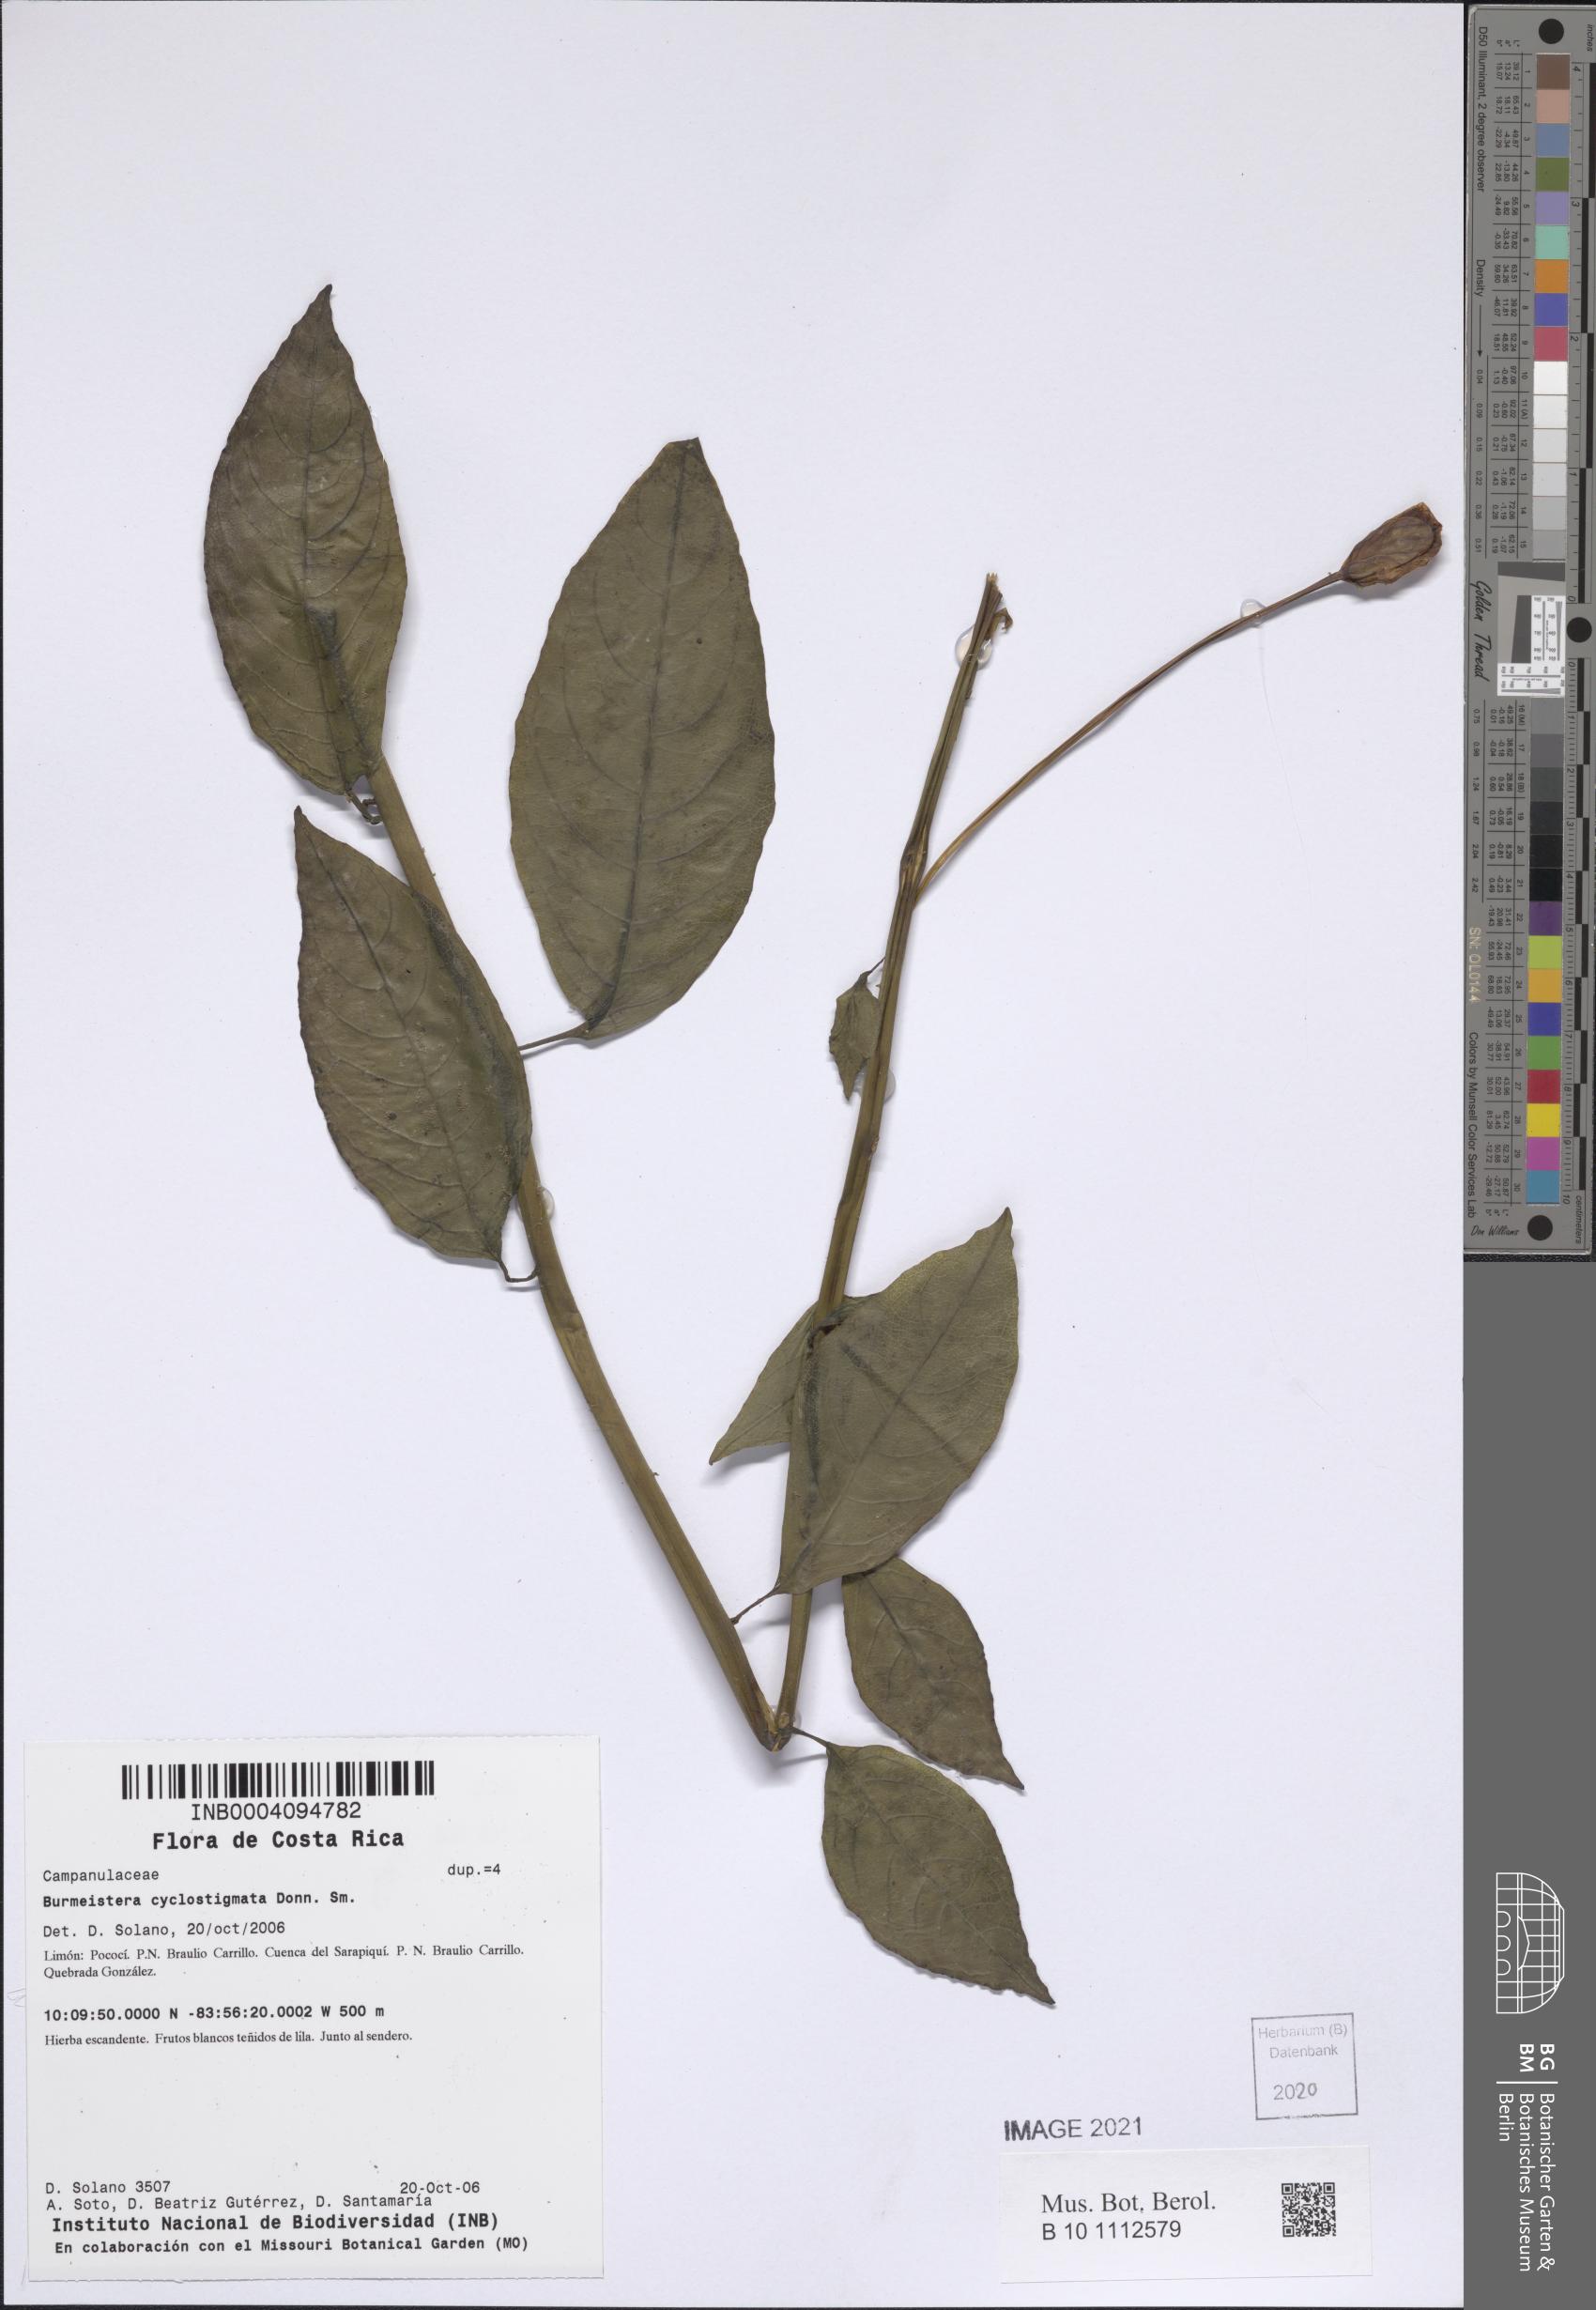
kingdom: Plantae
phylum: Tracheophyta
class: Magnoliopsida
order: Asterales
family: Campanulaceae
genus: Burmeistera
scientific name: Burmeistera cyclostigmata
